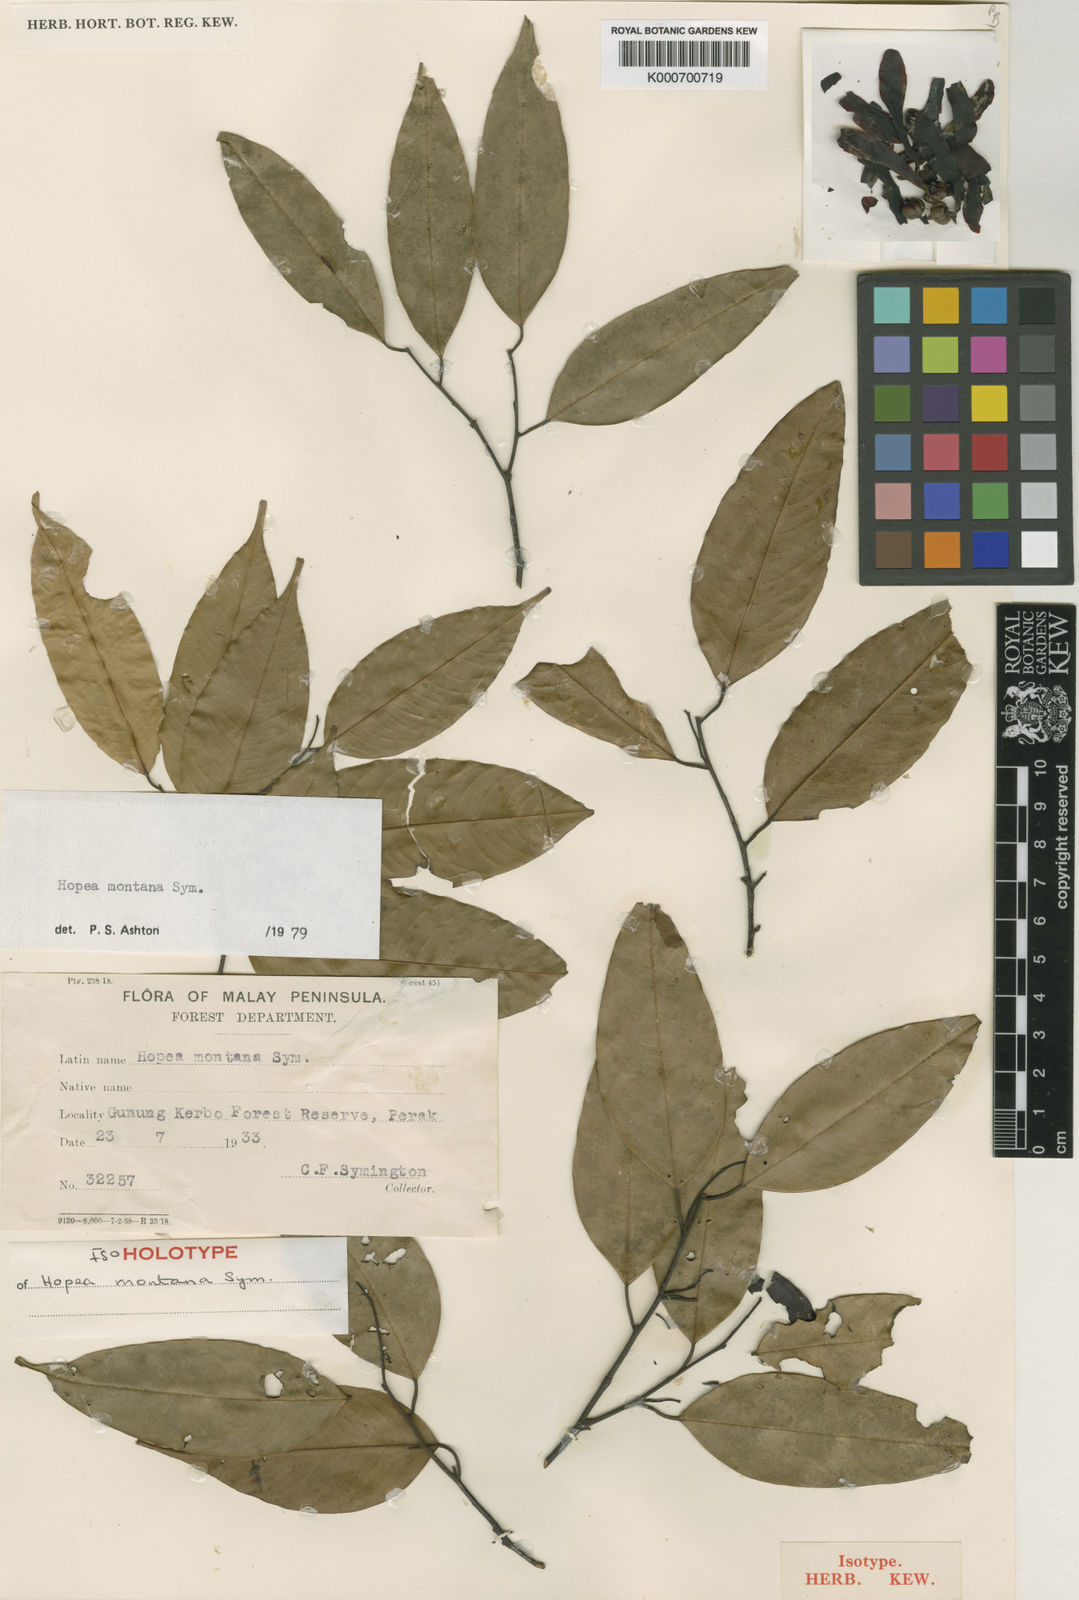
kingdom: Plantae
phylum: Tracheophyta
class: Magnoliopsida
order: Malvales
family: Dipterocarpaceae
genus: Hopea
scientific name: Hopea montana
